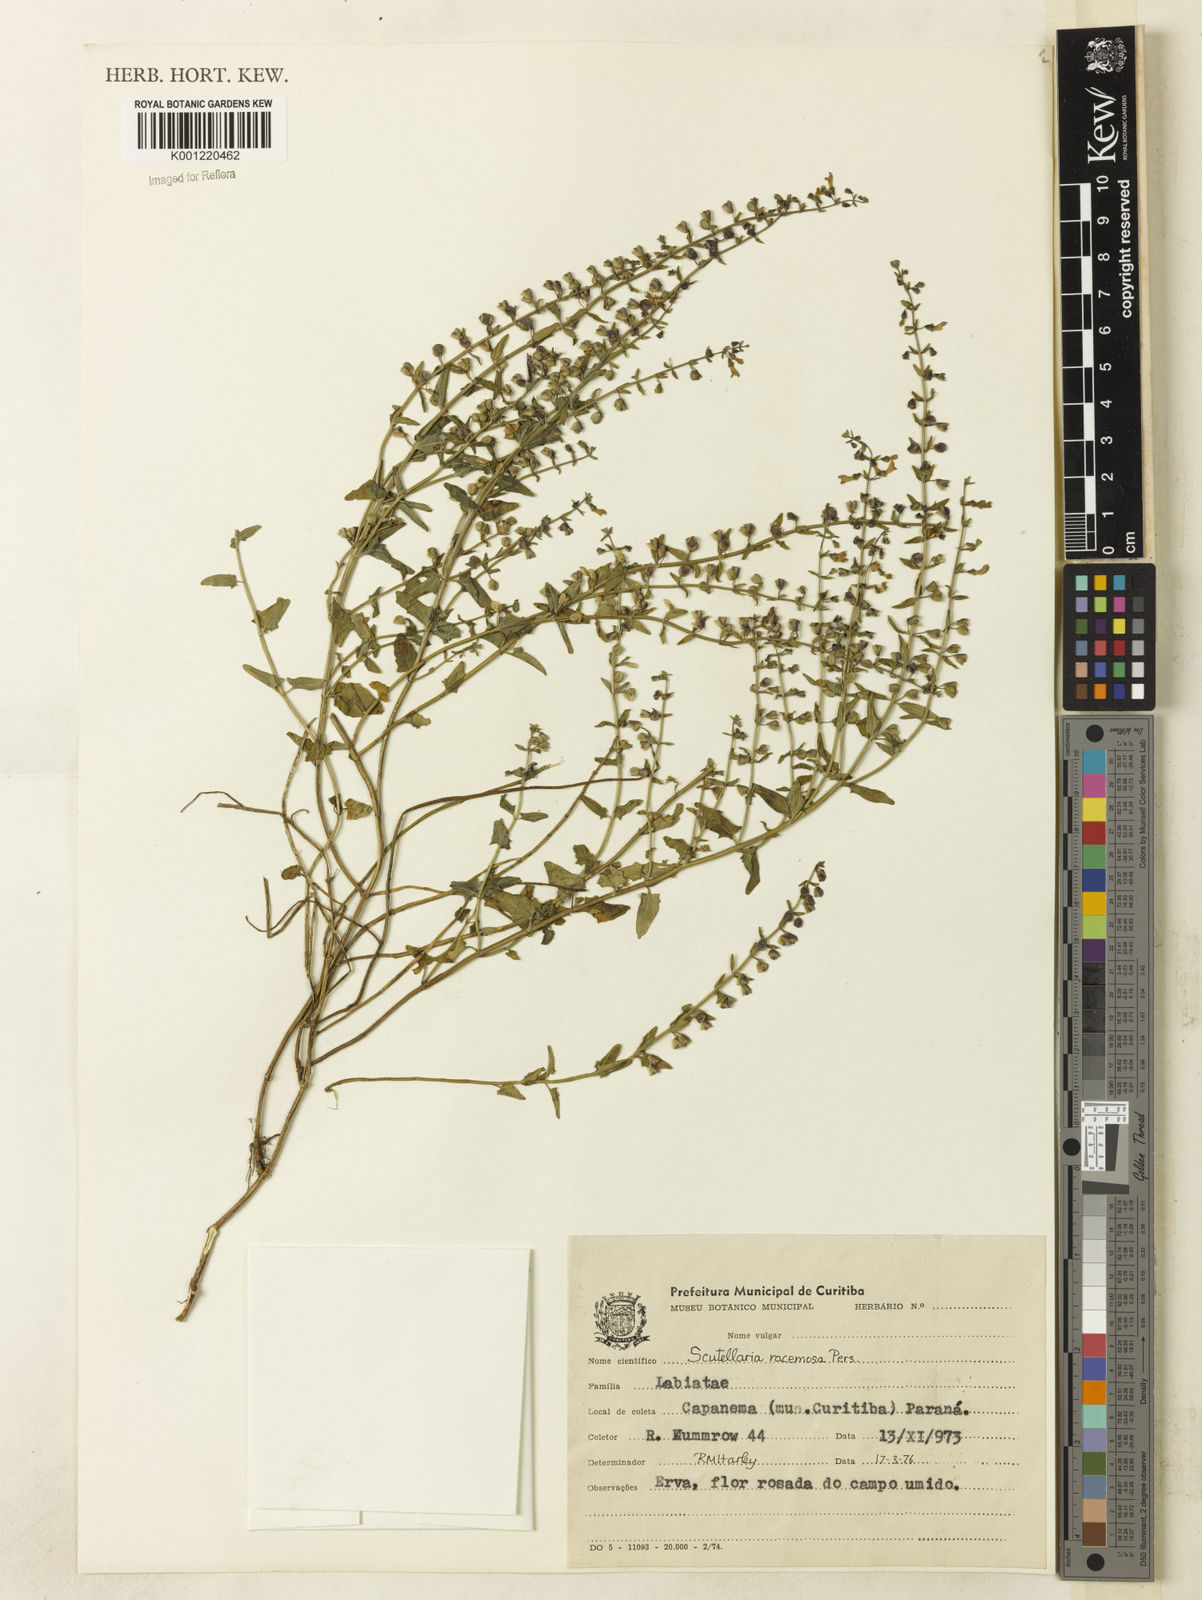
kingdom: Plantae
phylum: Tracheophyta
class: Magnoliopsida
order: Lamiales
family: Lamiaceae
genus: Scutellaria
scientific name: Scutellaria racemosa
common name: South american skullcap
